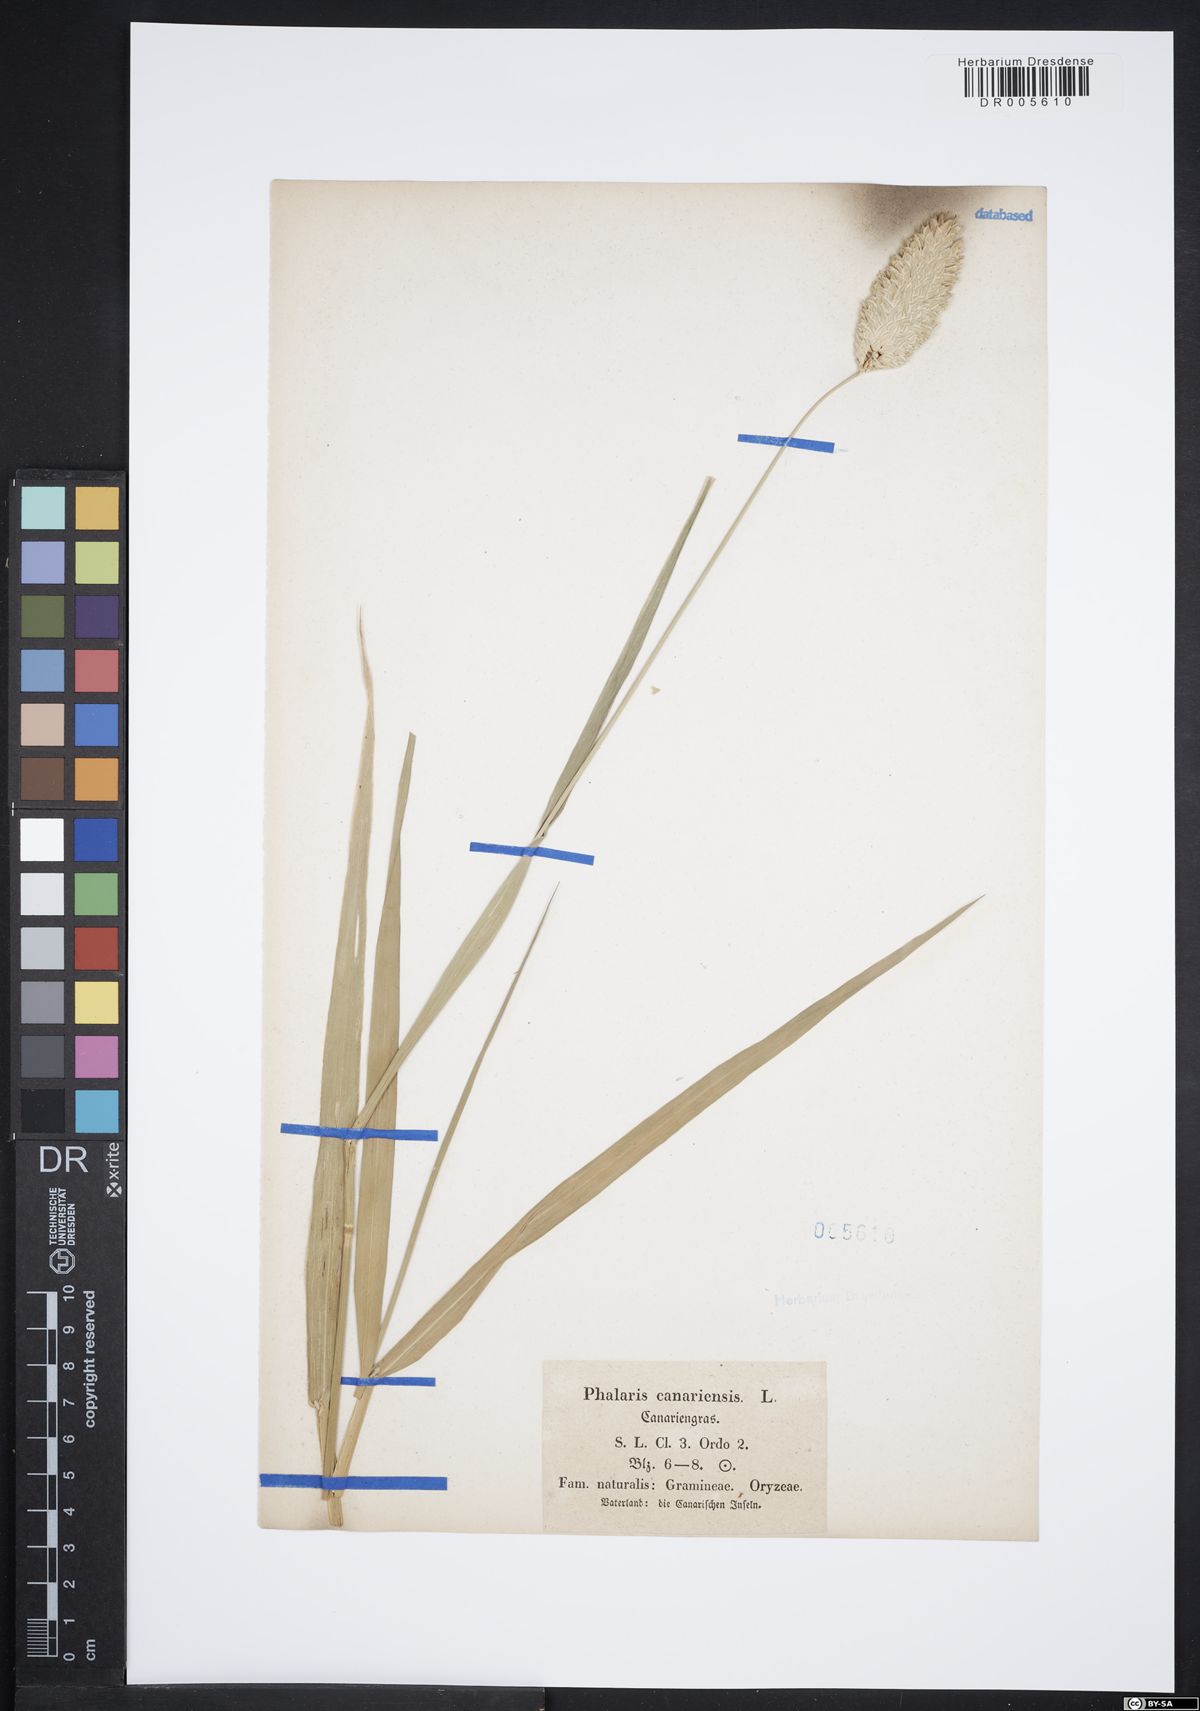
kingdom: Plantae
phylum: Tracheophyta
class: Liliopsida
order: Poales
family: Poaceae
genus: Phalaris
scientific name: Phalaris canariensis
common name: Annual canarygrass
